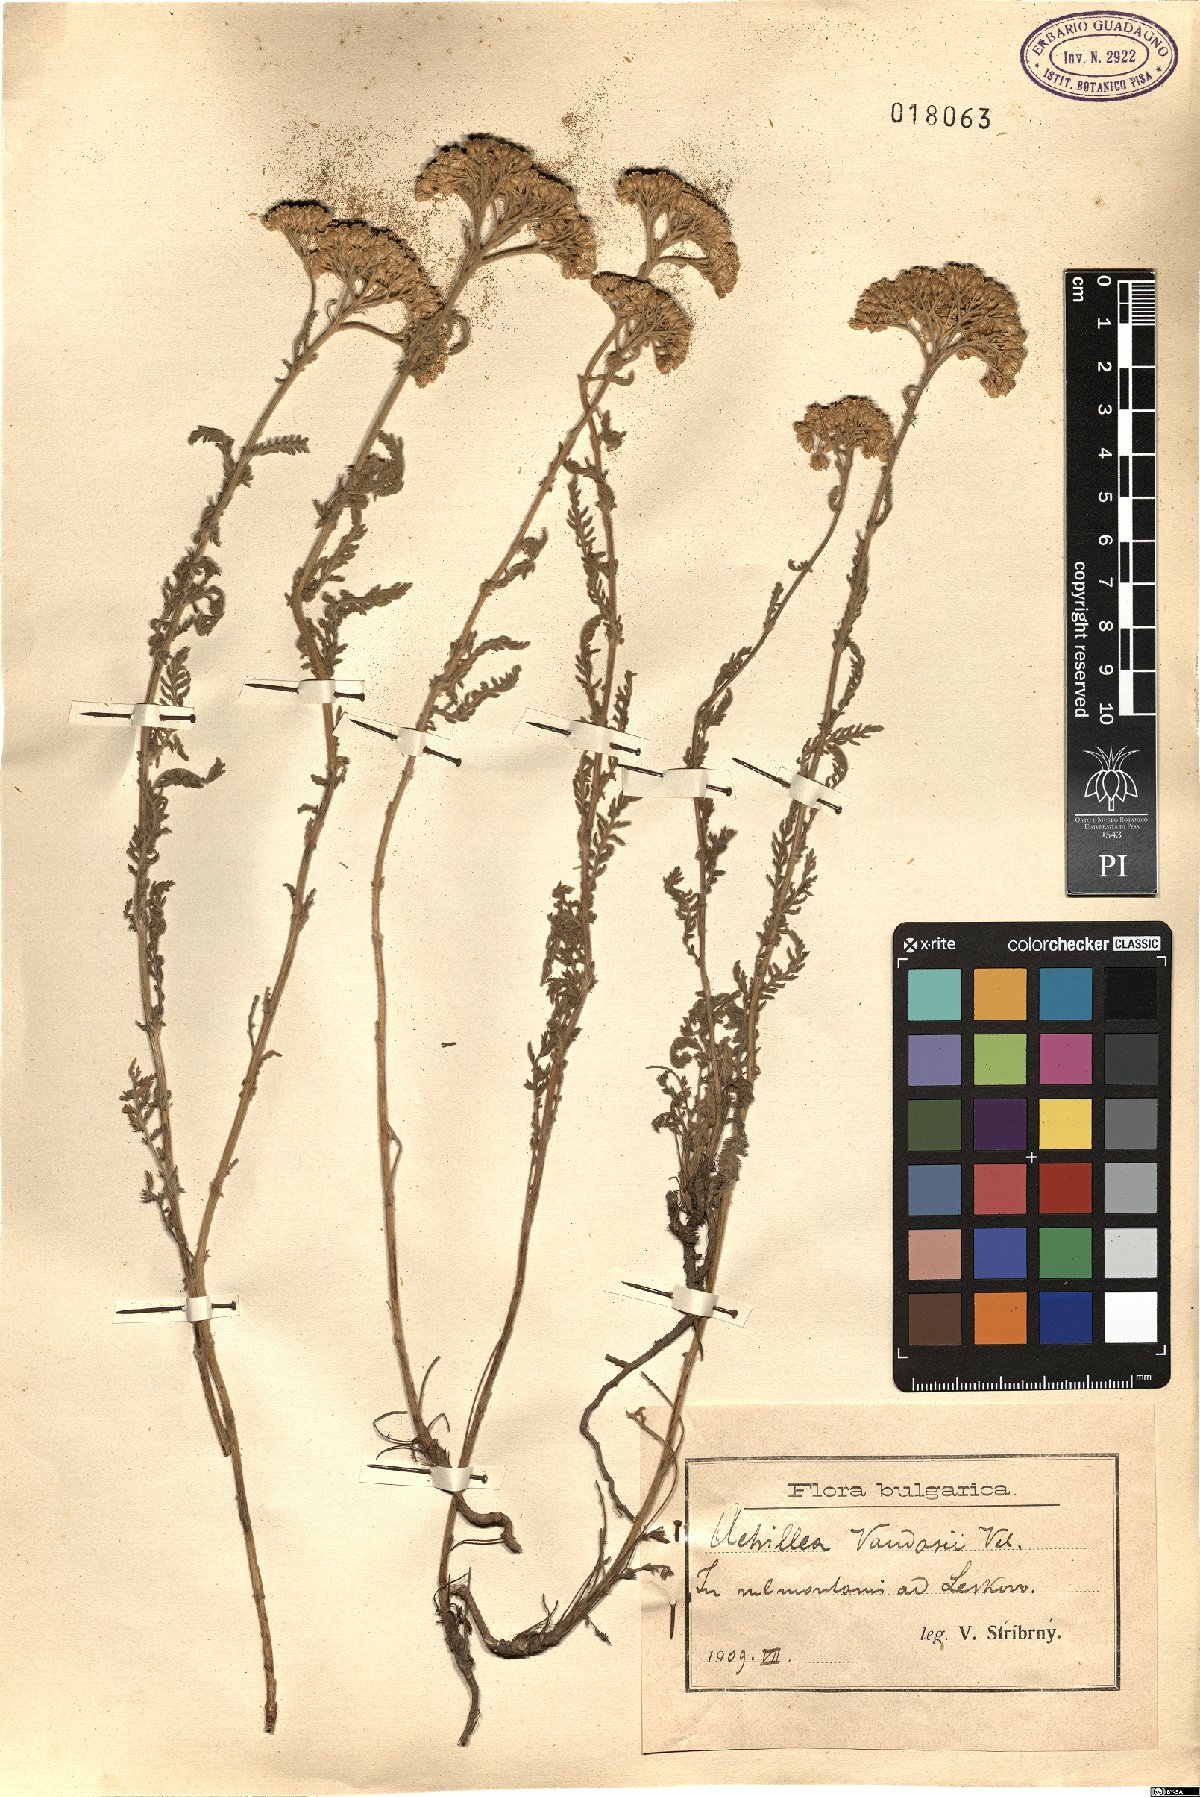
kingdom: Plantae
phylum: Tracheophyta
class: Magnoliopsida
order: Asterales
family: Asteraceae
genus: Achillea
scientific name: Achillea vandasii
